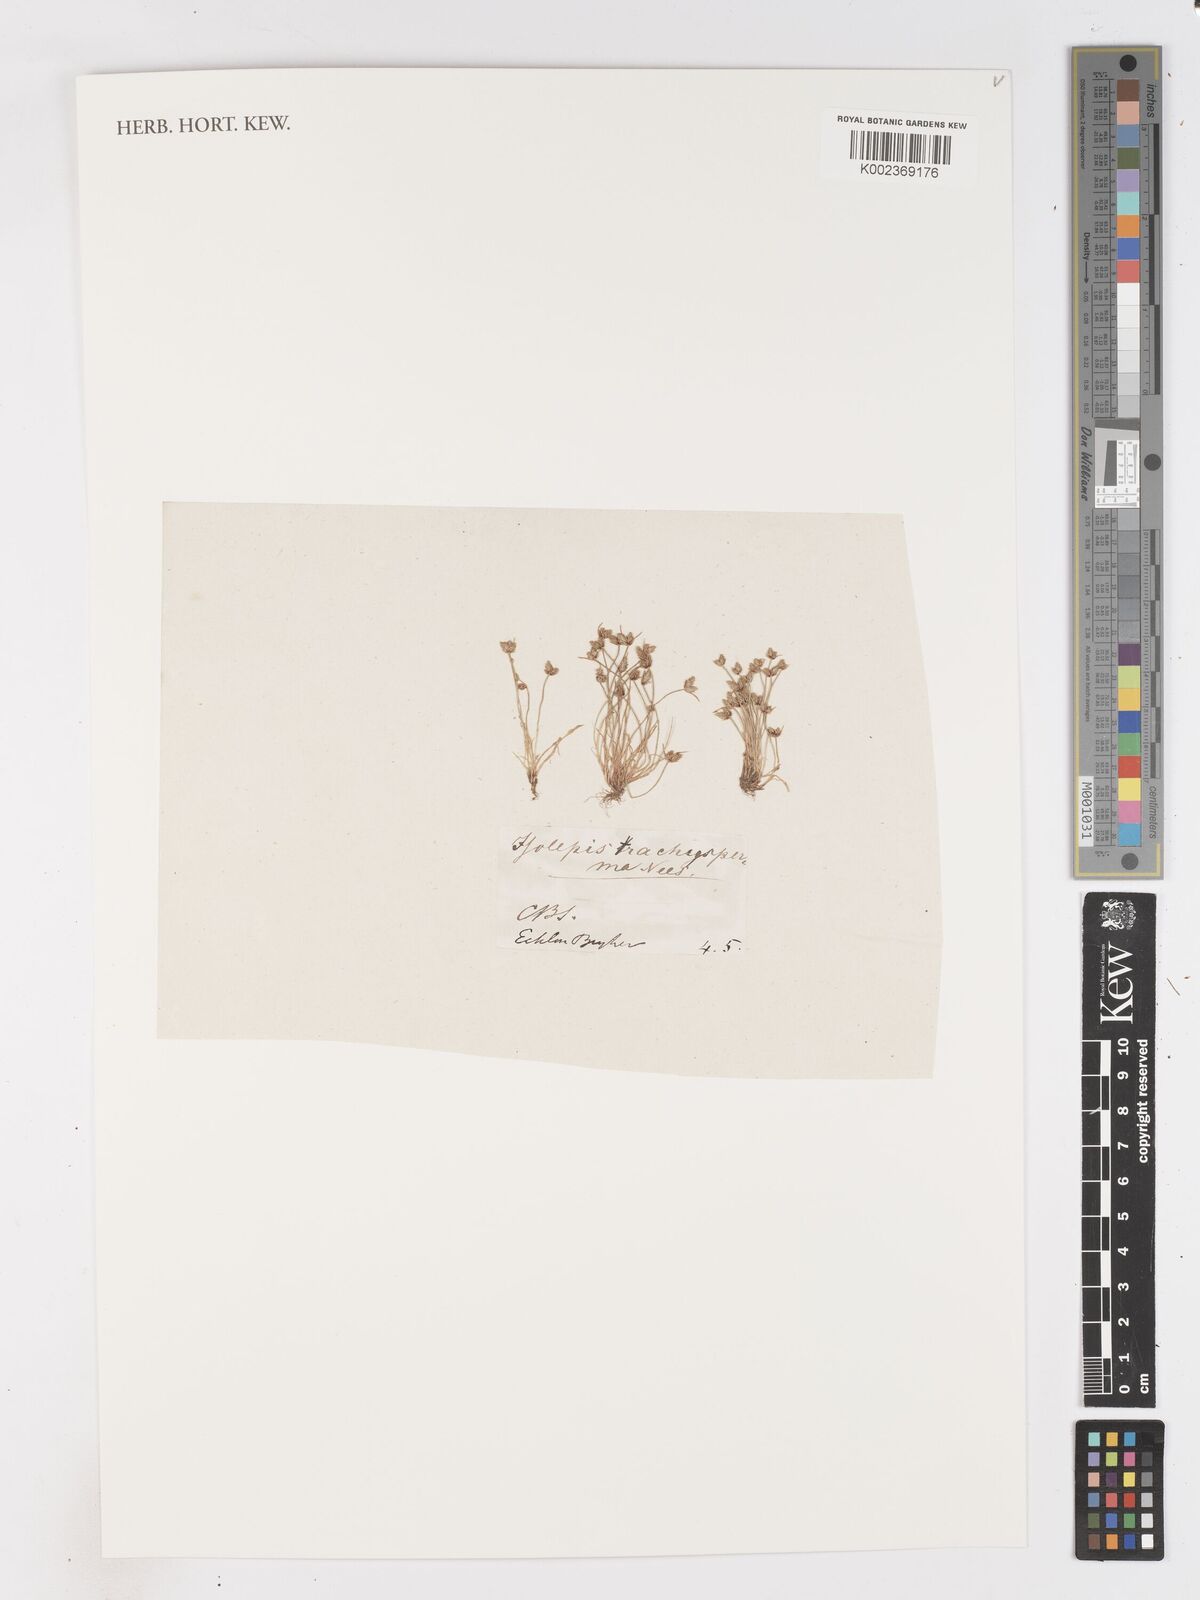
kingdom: Plantae
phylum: Tracheophyta
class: Liliopsida
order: Poales
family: Cyperaceae
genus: Isolepis
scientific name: Isolepis trachysperma
